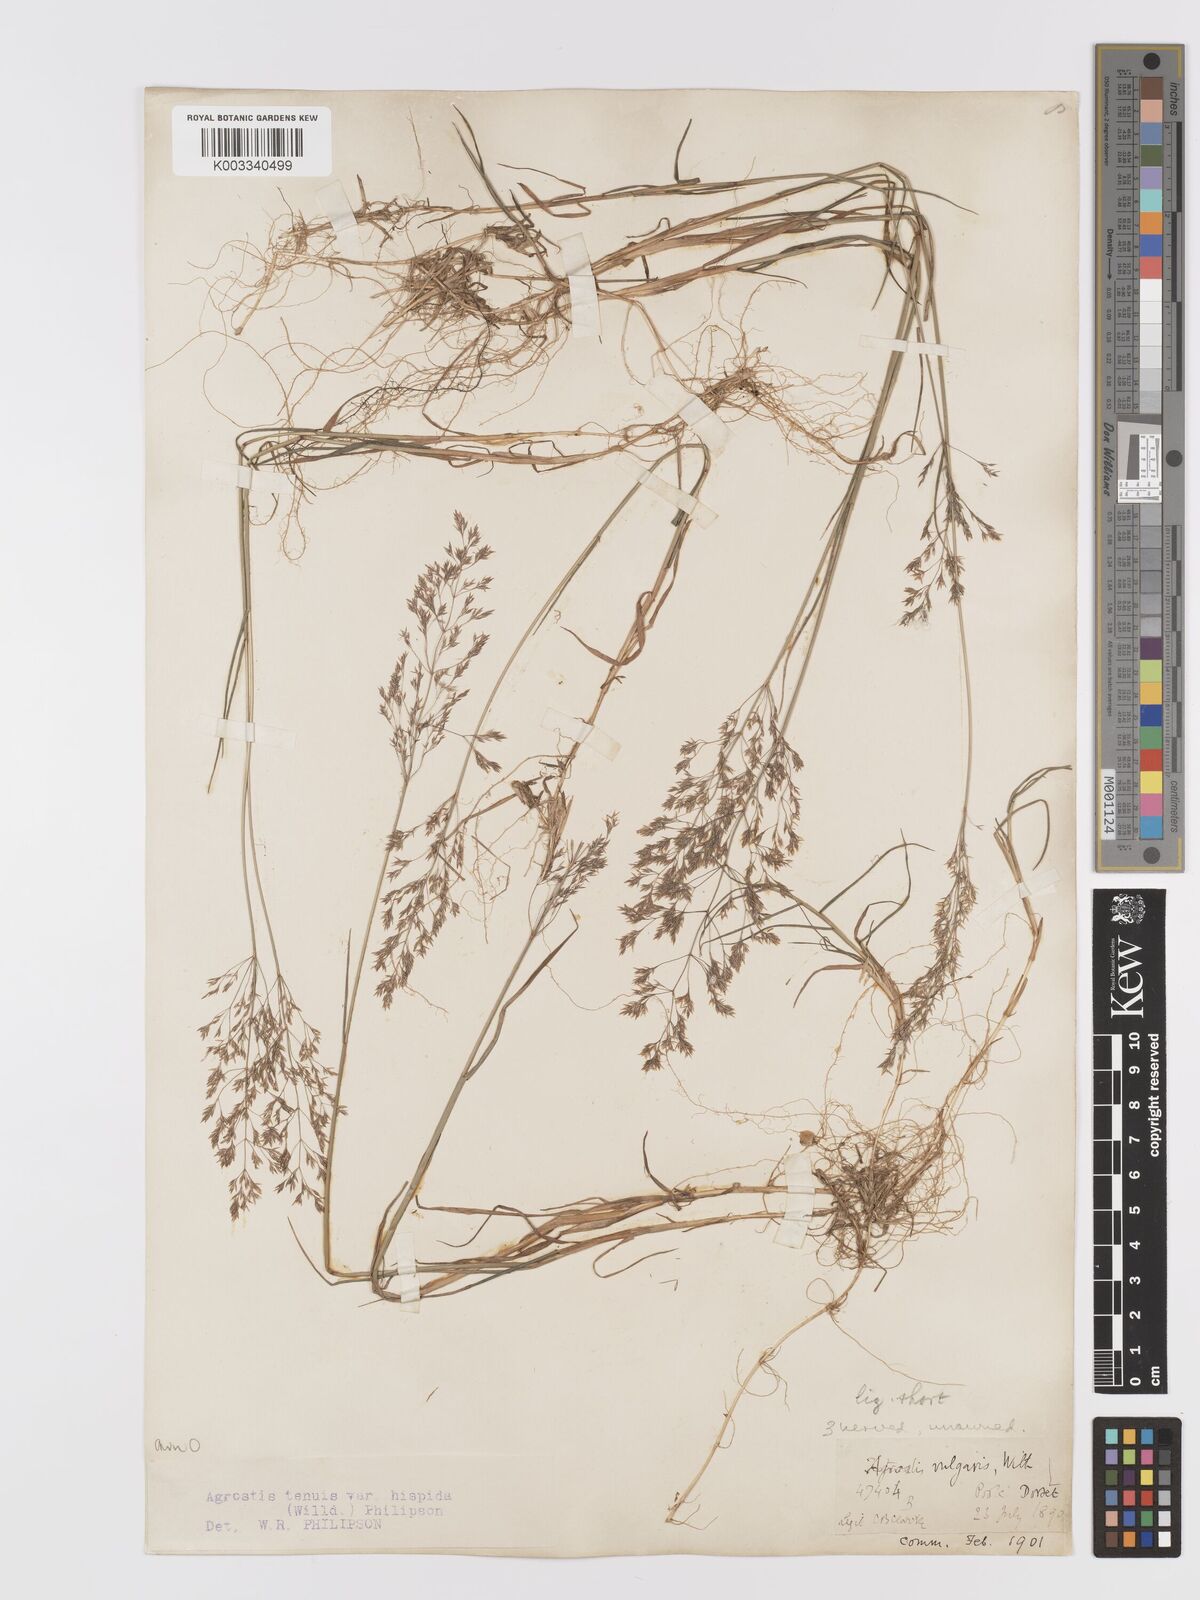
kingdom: Plantae
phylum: Tracheophyta
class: Liliopsida
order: Poales
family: Poaceae
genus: Agrostis
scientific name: Agrostis capillaris
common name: Colonial bentgrass
